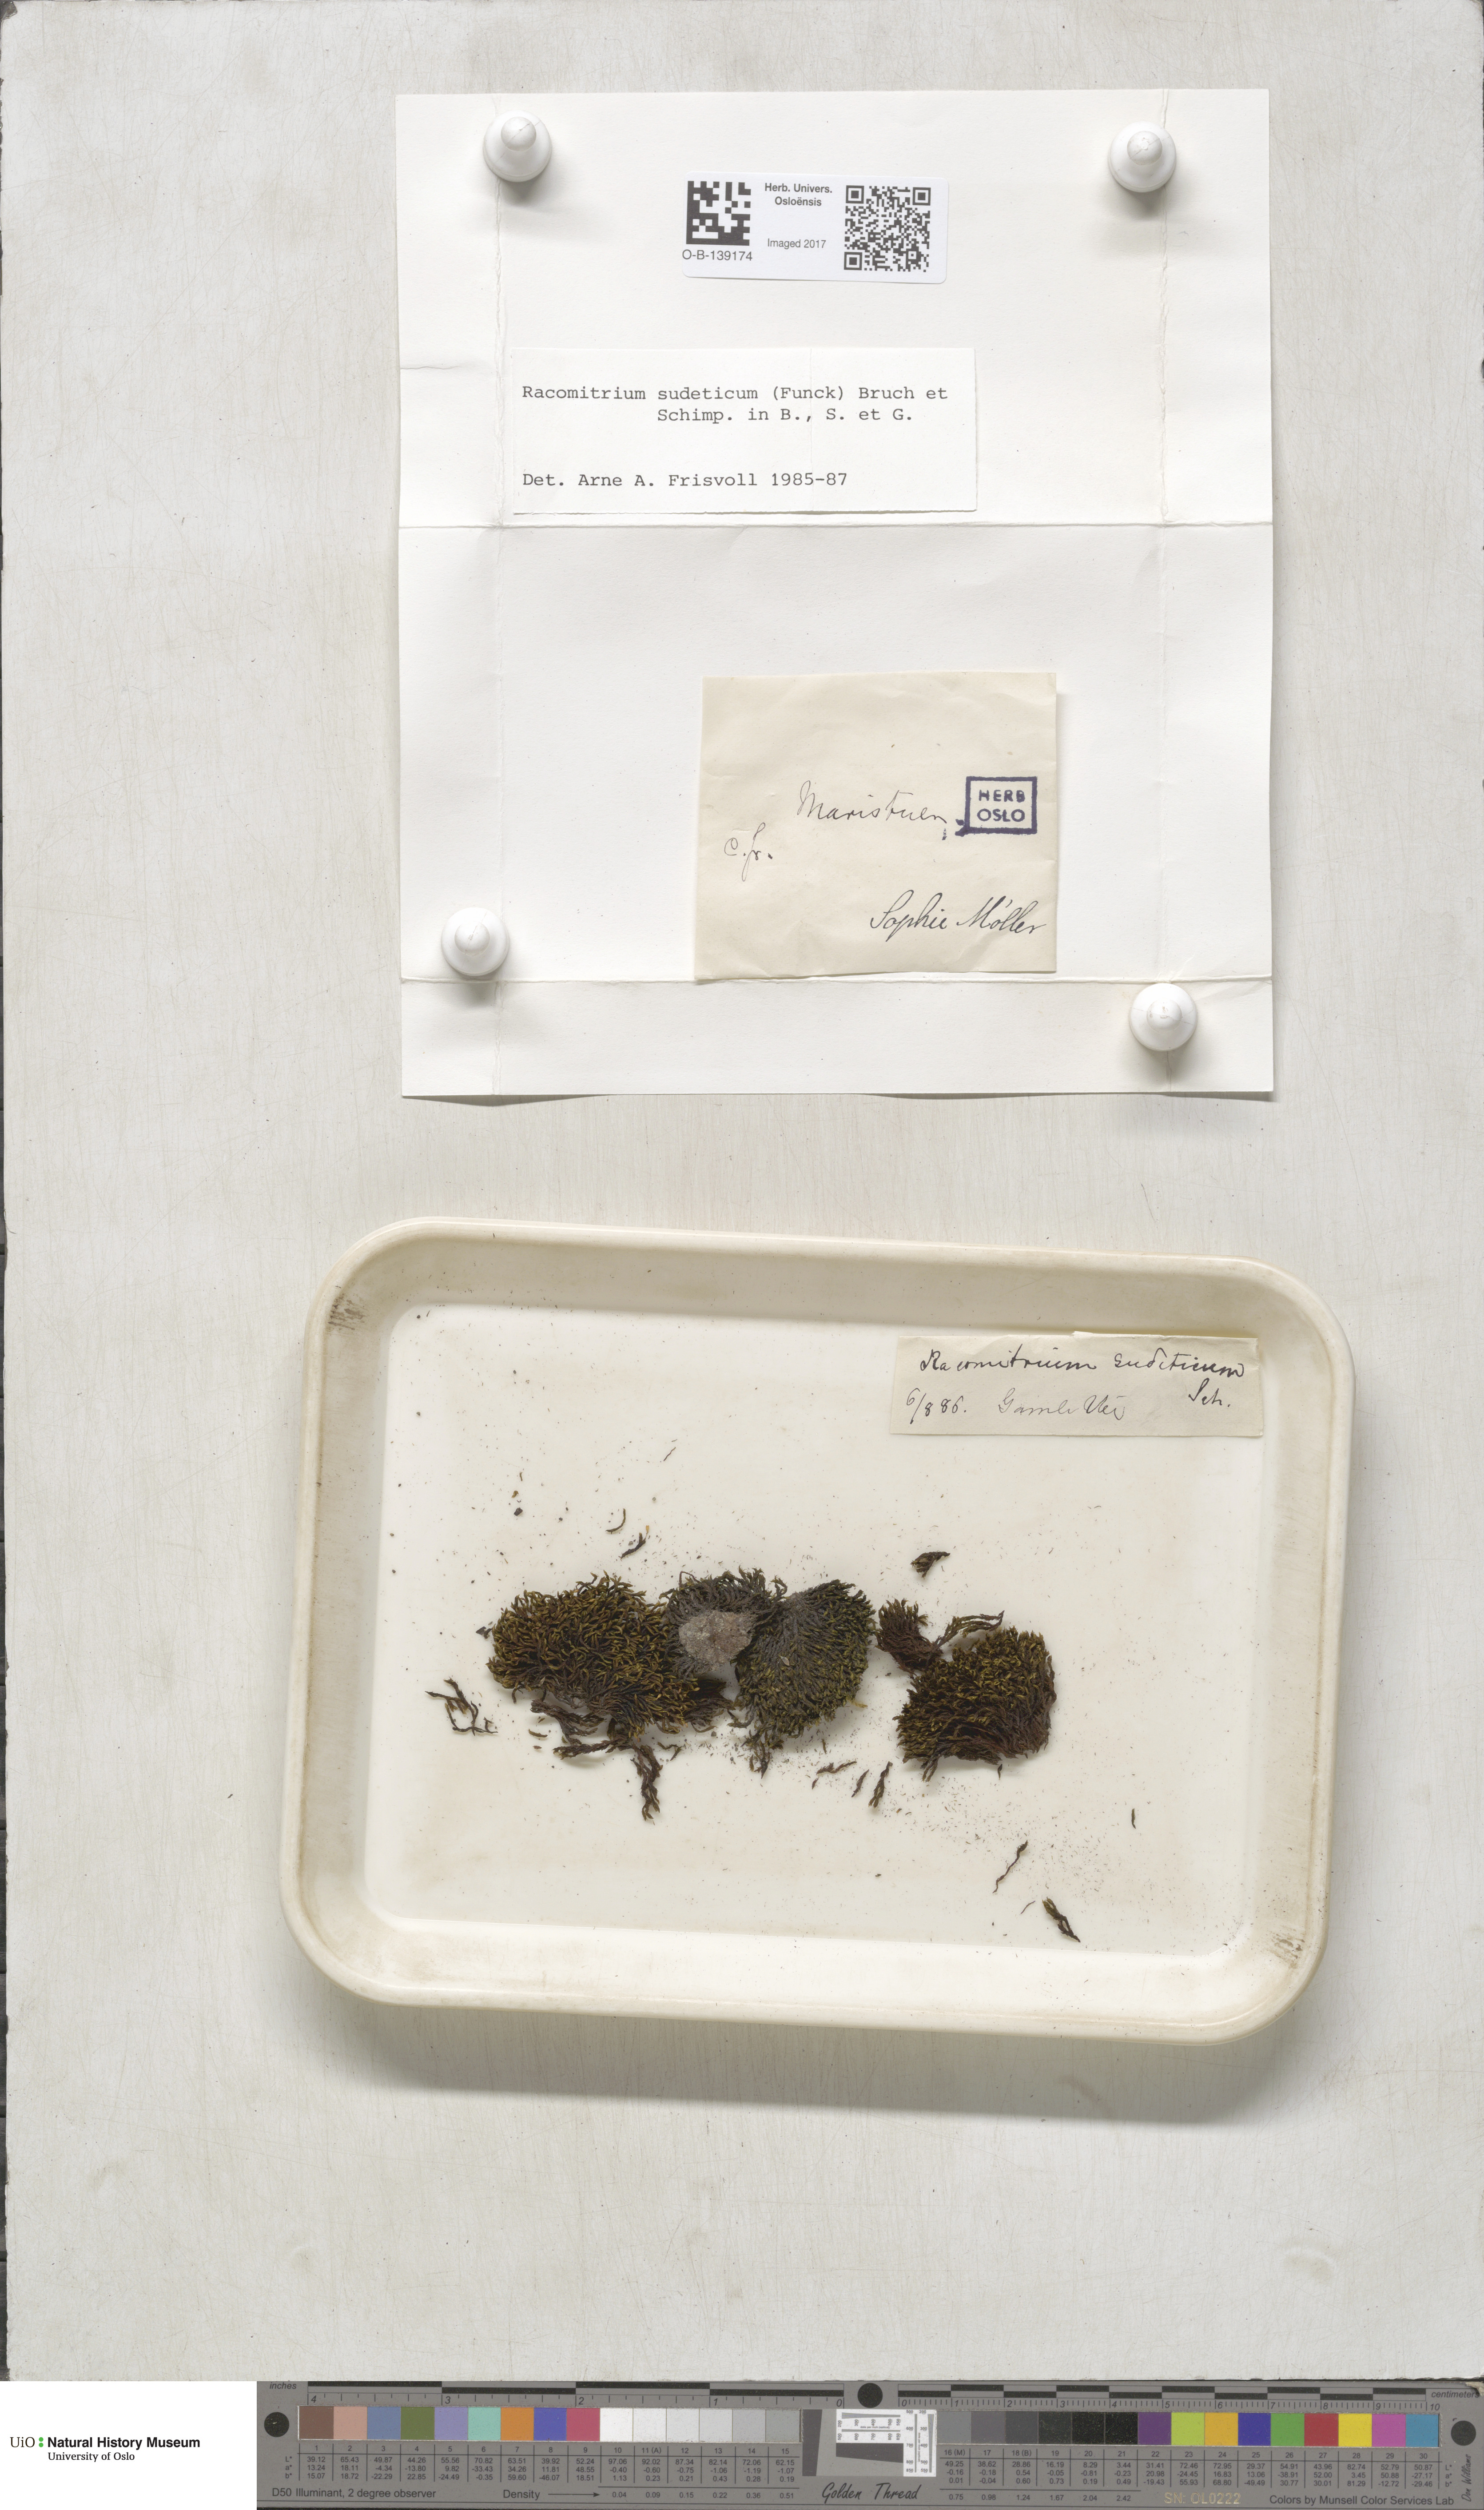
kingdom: Plantae
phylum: Bryophyta
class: Bryopsida
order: Grimmiales
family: Grimmiaceae
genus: Bucklandiella
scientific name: Bucklandiella sudetica
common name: Slender fringe-moss
